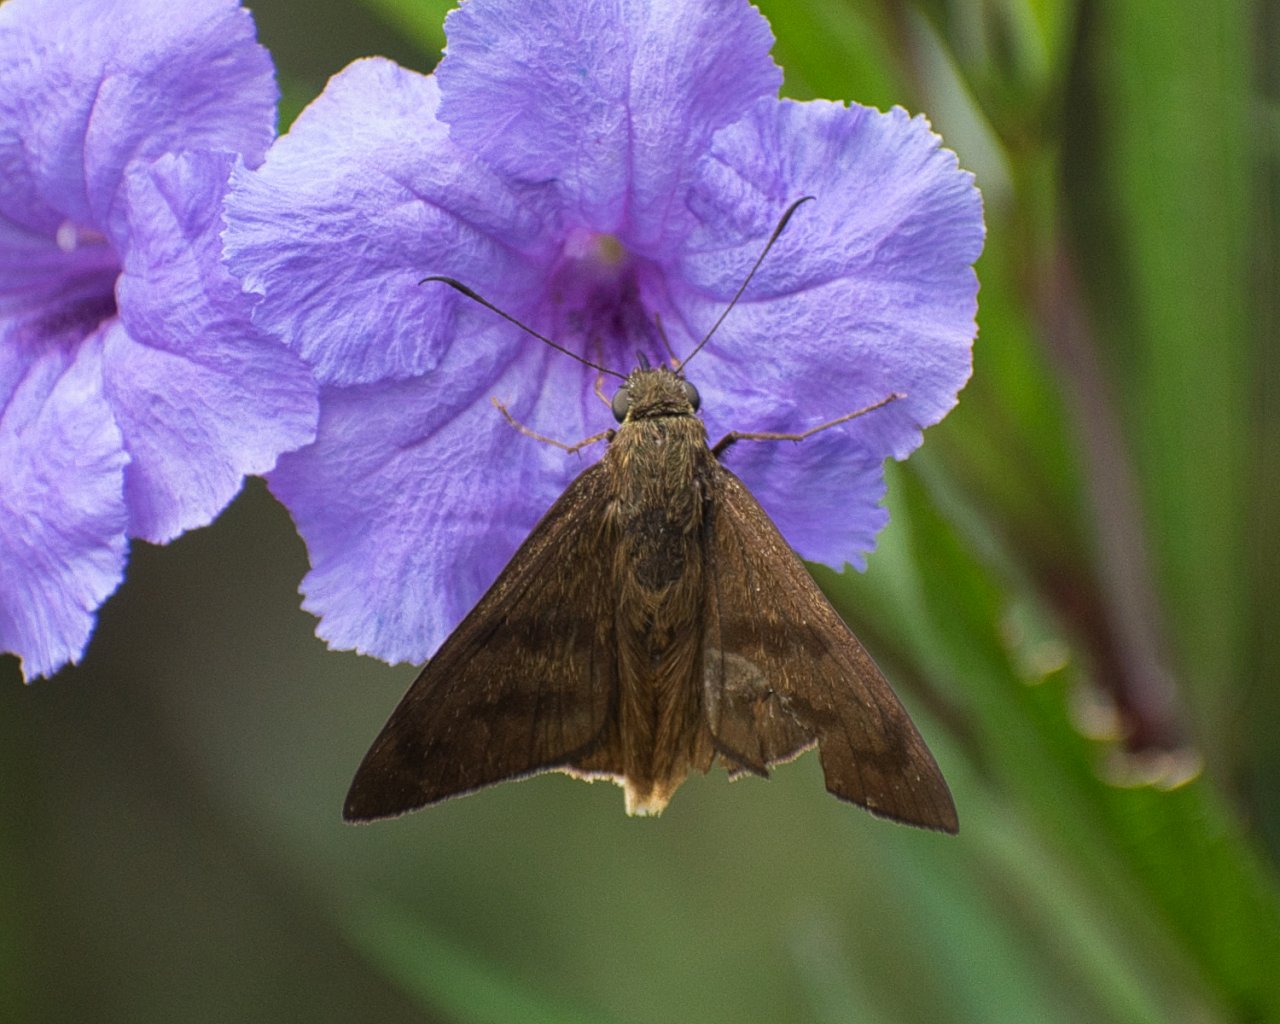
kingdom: Animalia
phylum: Arthropoda
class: Insecta
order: Lepidoptera
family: Hesperiidae
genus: Astraptes
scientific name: Astraptes anaphus
